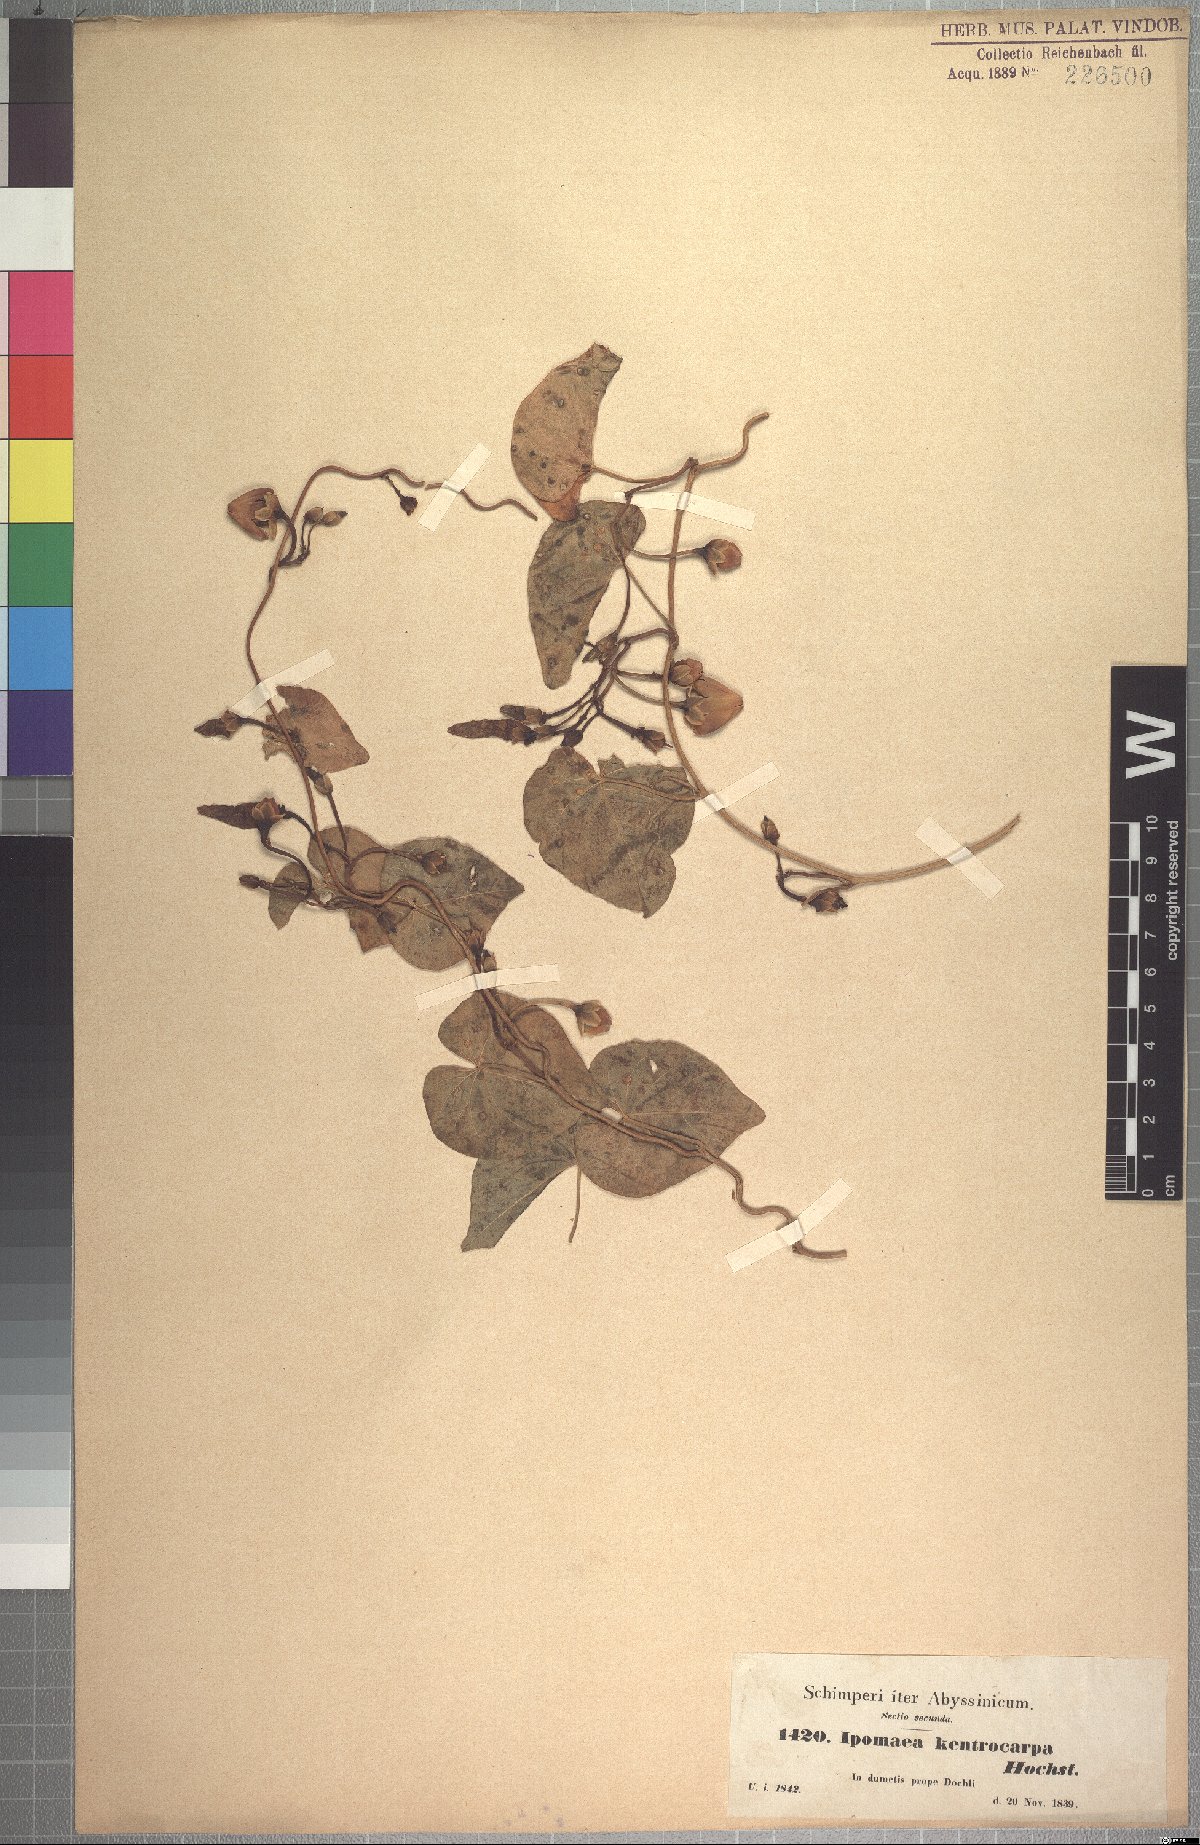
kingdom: Plantae
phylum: Tracheophyta
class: Magnoliopsida
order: Solanales
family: Convolvulaceae
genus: Ipomoea
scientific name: Ipomoea ochracea
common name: Fence morning-glory
